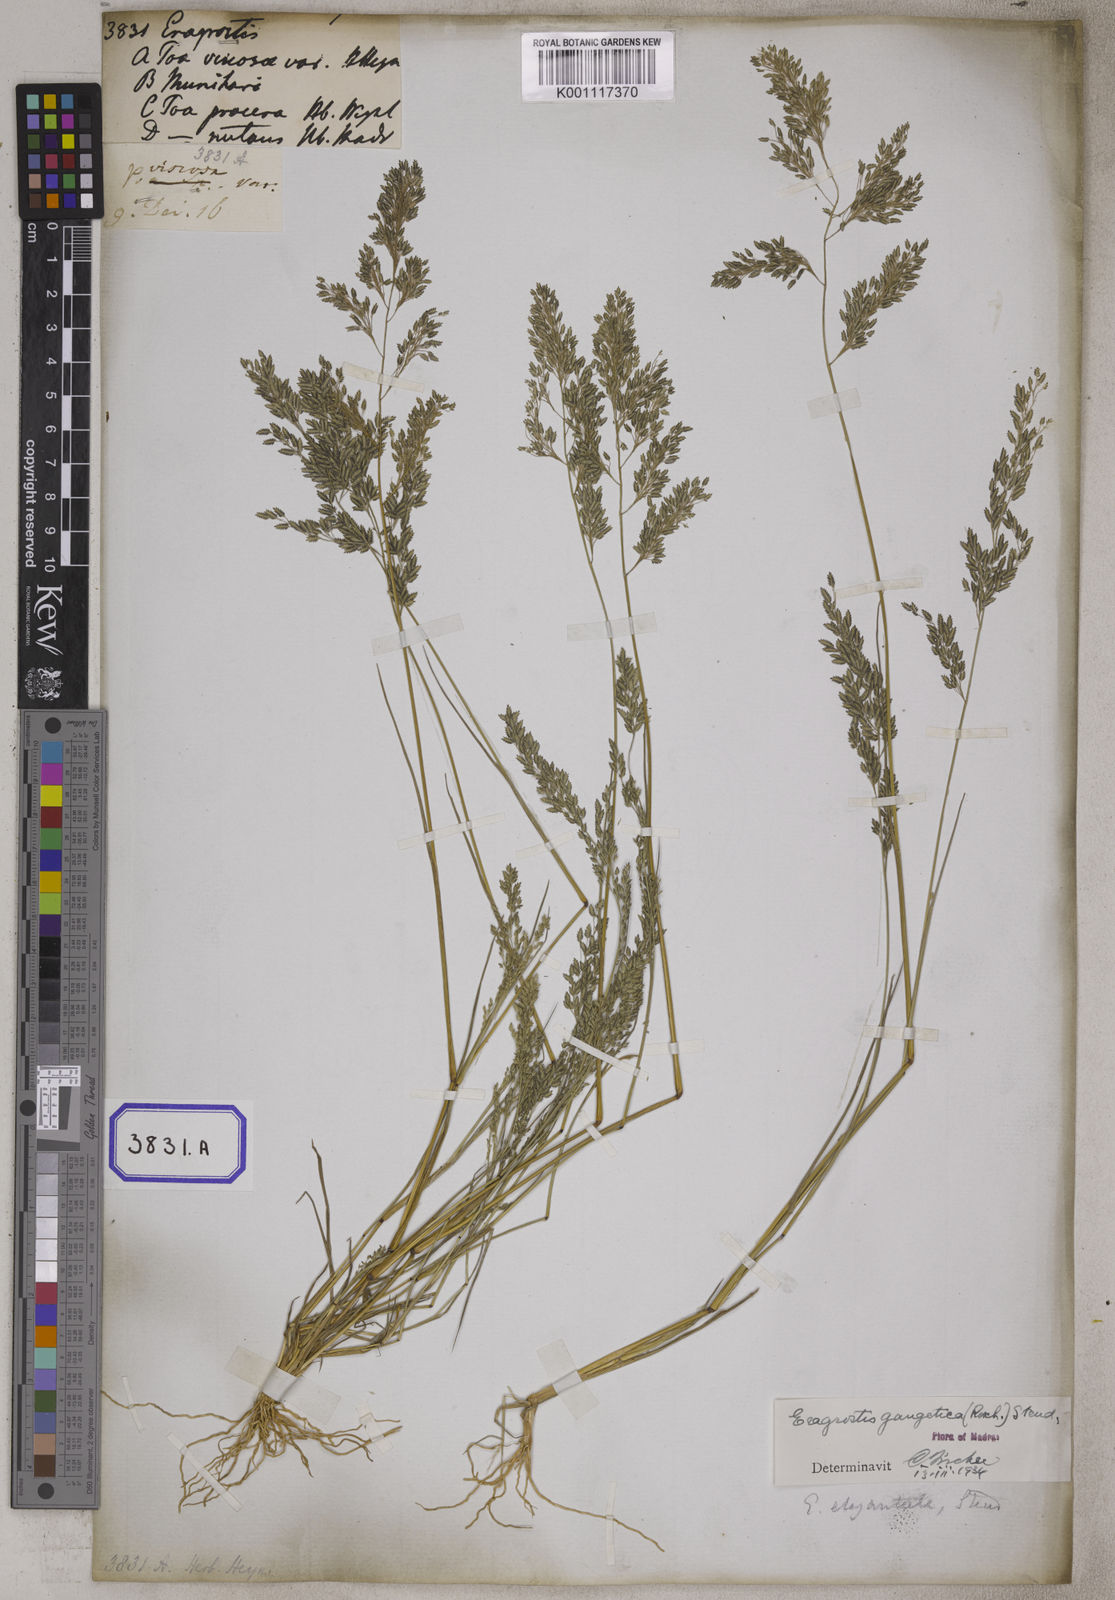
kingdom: Plantae
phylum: Tracheophyta
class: Liliopsida
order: Poales
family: Poaceae
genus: Eragrostis
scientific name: Eragrostis
